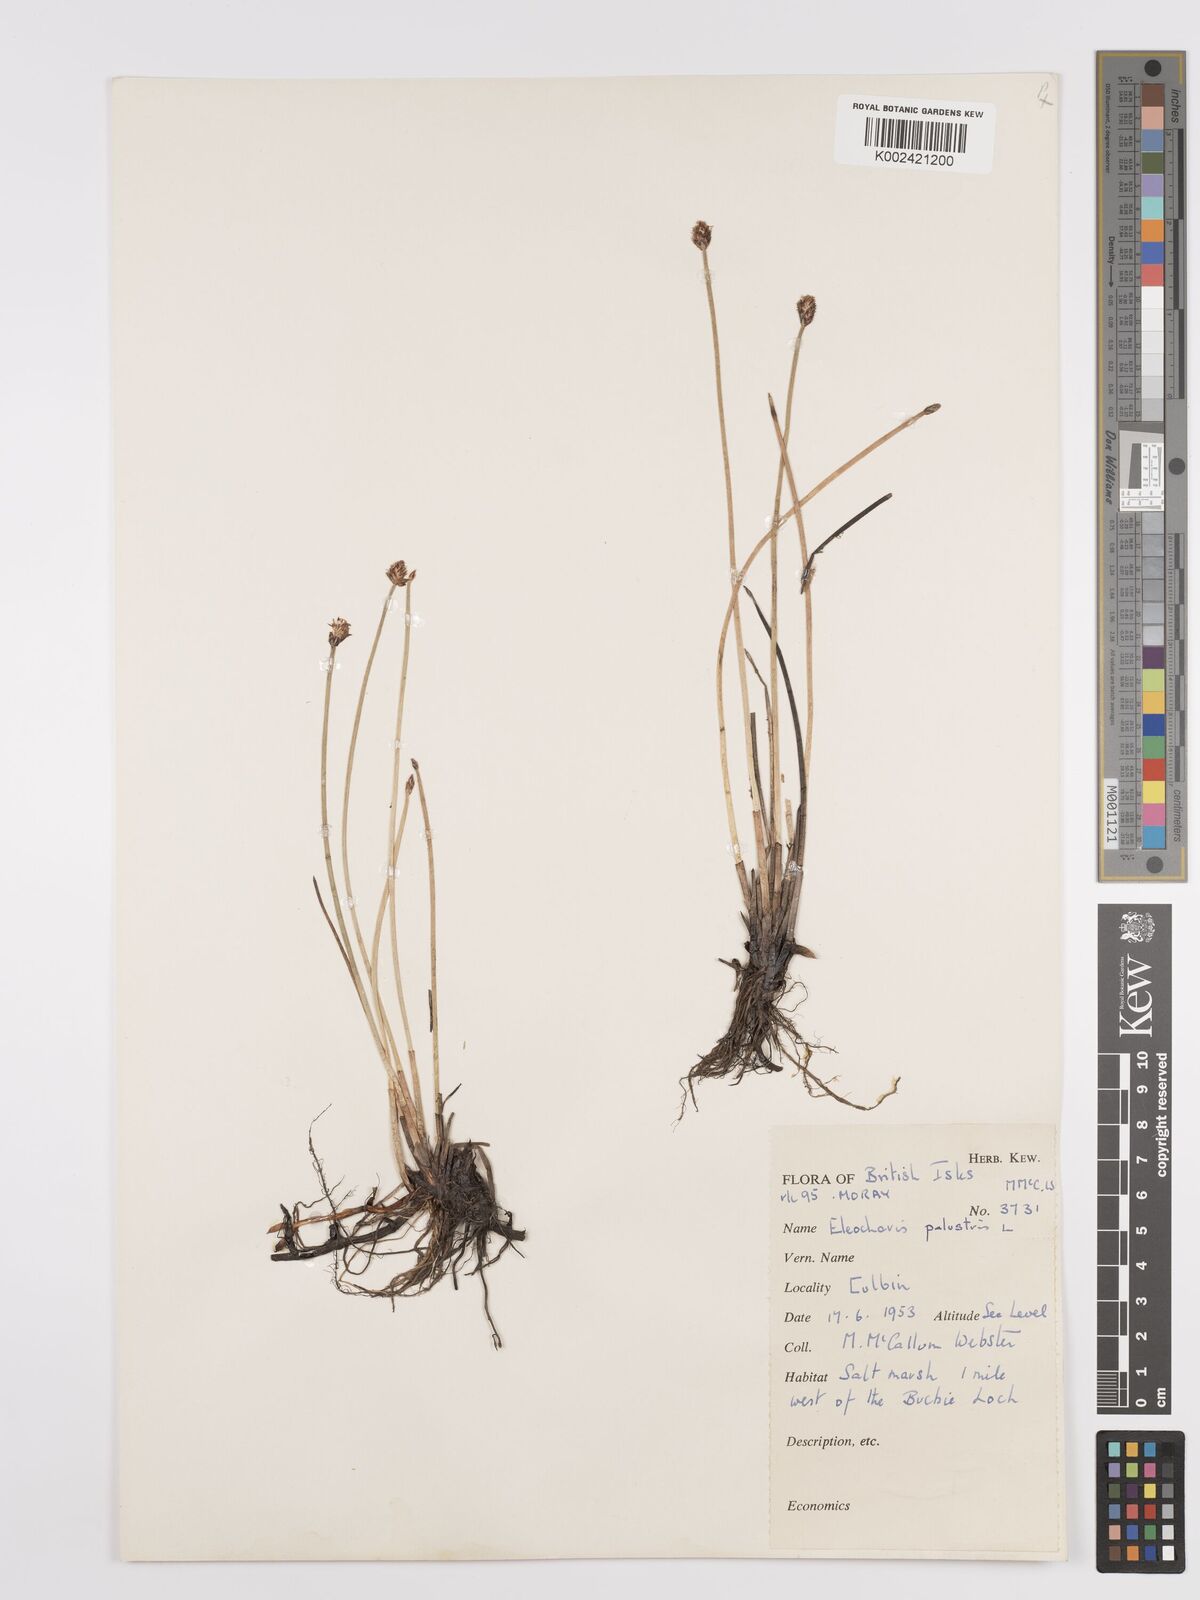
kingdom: Plantae
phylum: Tracheophyta
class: Liliopsida
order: Poales
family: Cyperaceae
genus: Eleocharis
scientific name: Eleocharis palustris
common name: Common spike-rush
